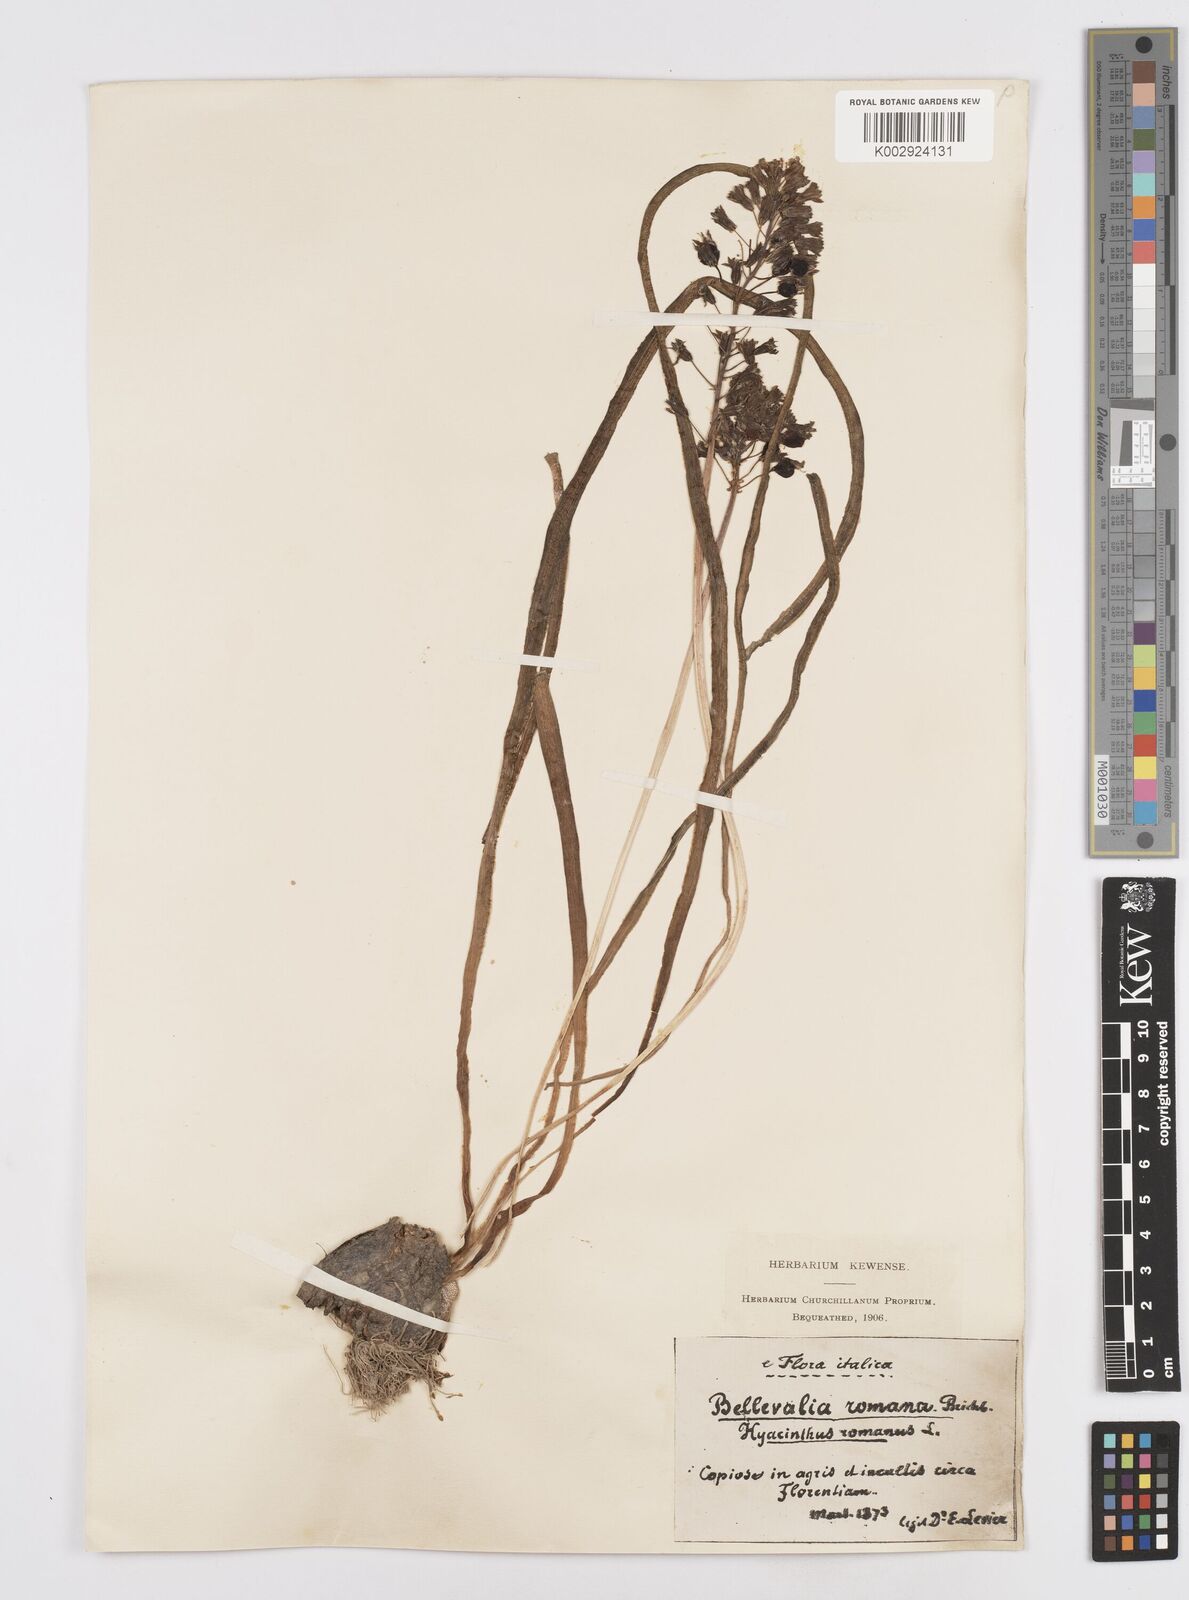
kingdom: Plantae
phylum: Tracheophyta
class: Liliopsida
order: Asparagales
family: Asparagaceae
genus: Bellevalia
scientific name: Bellevalia
